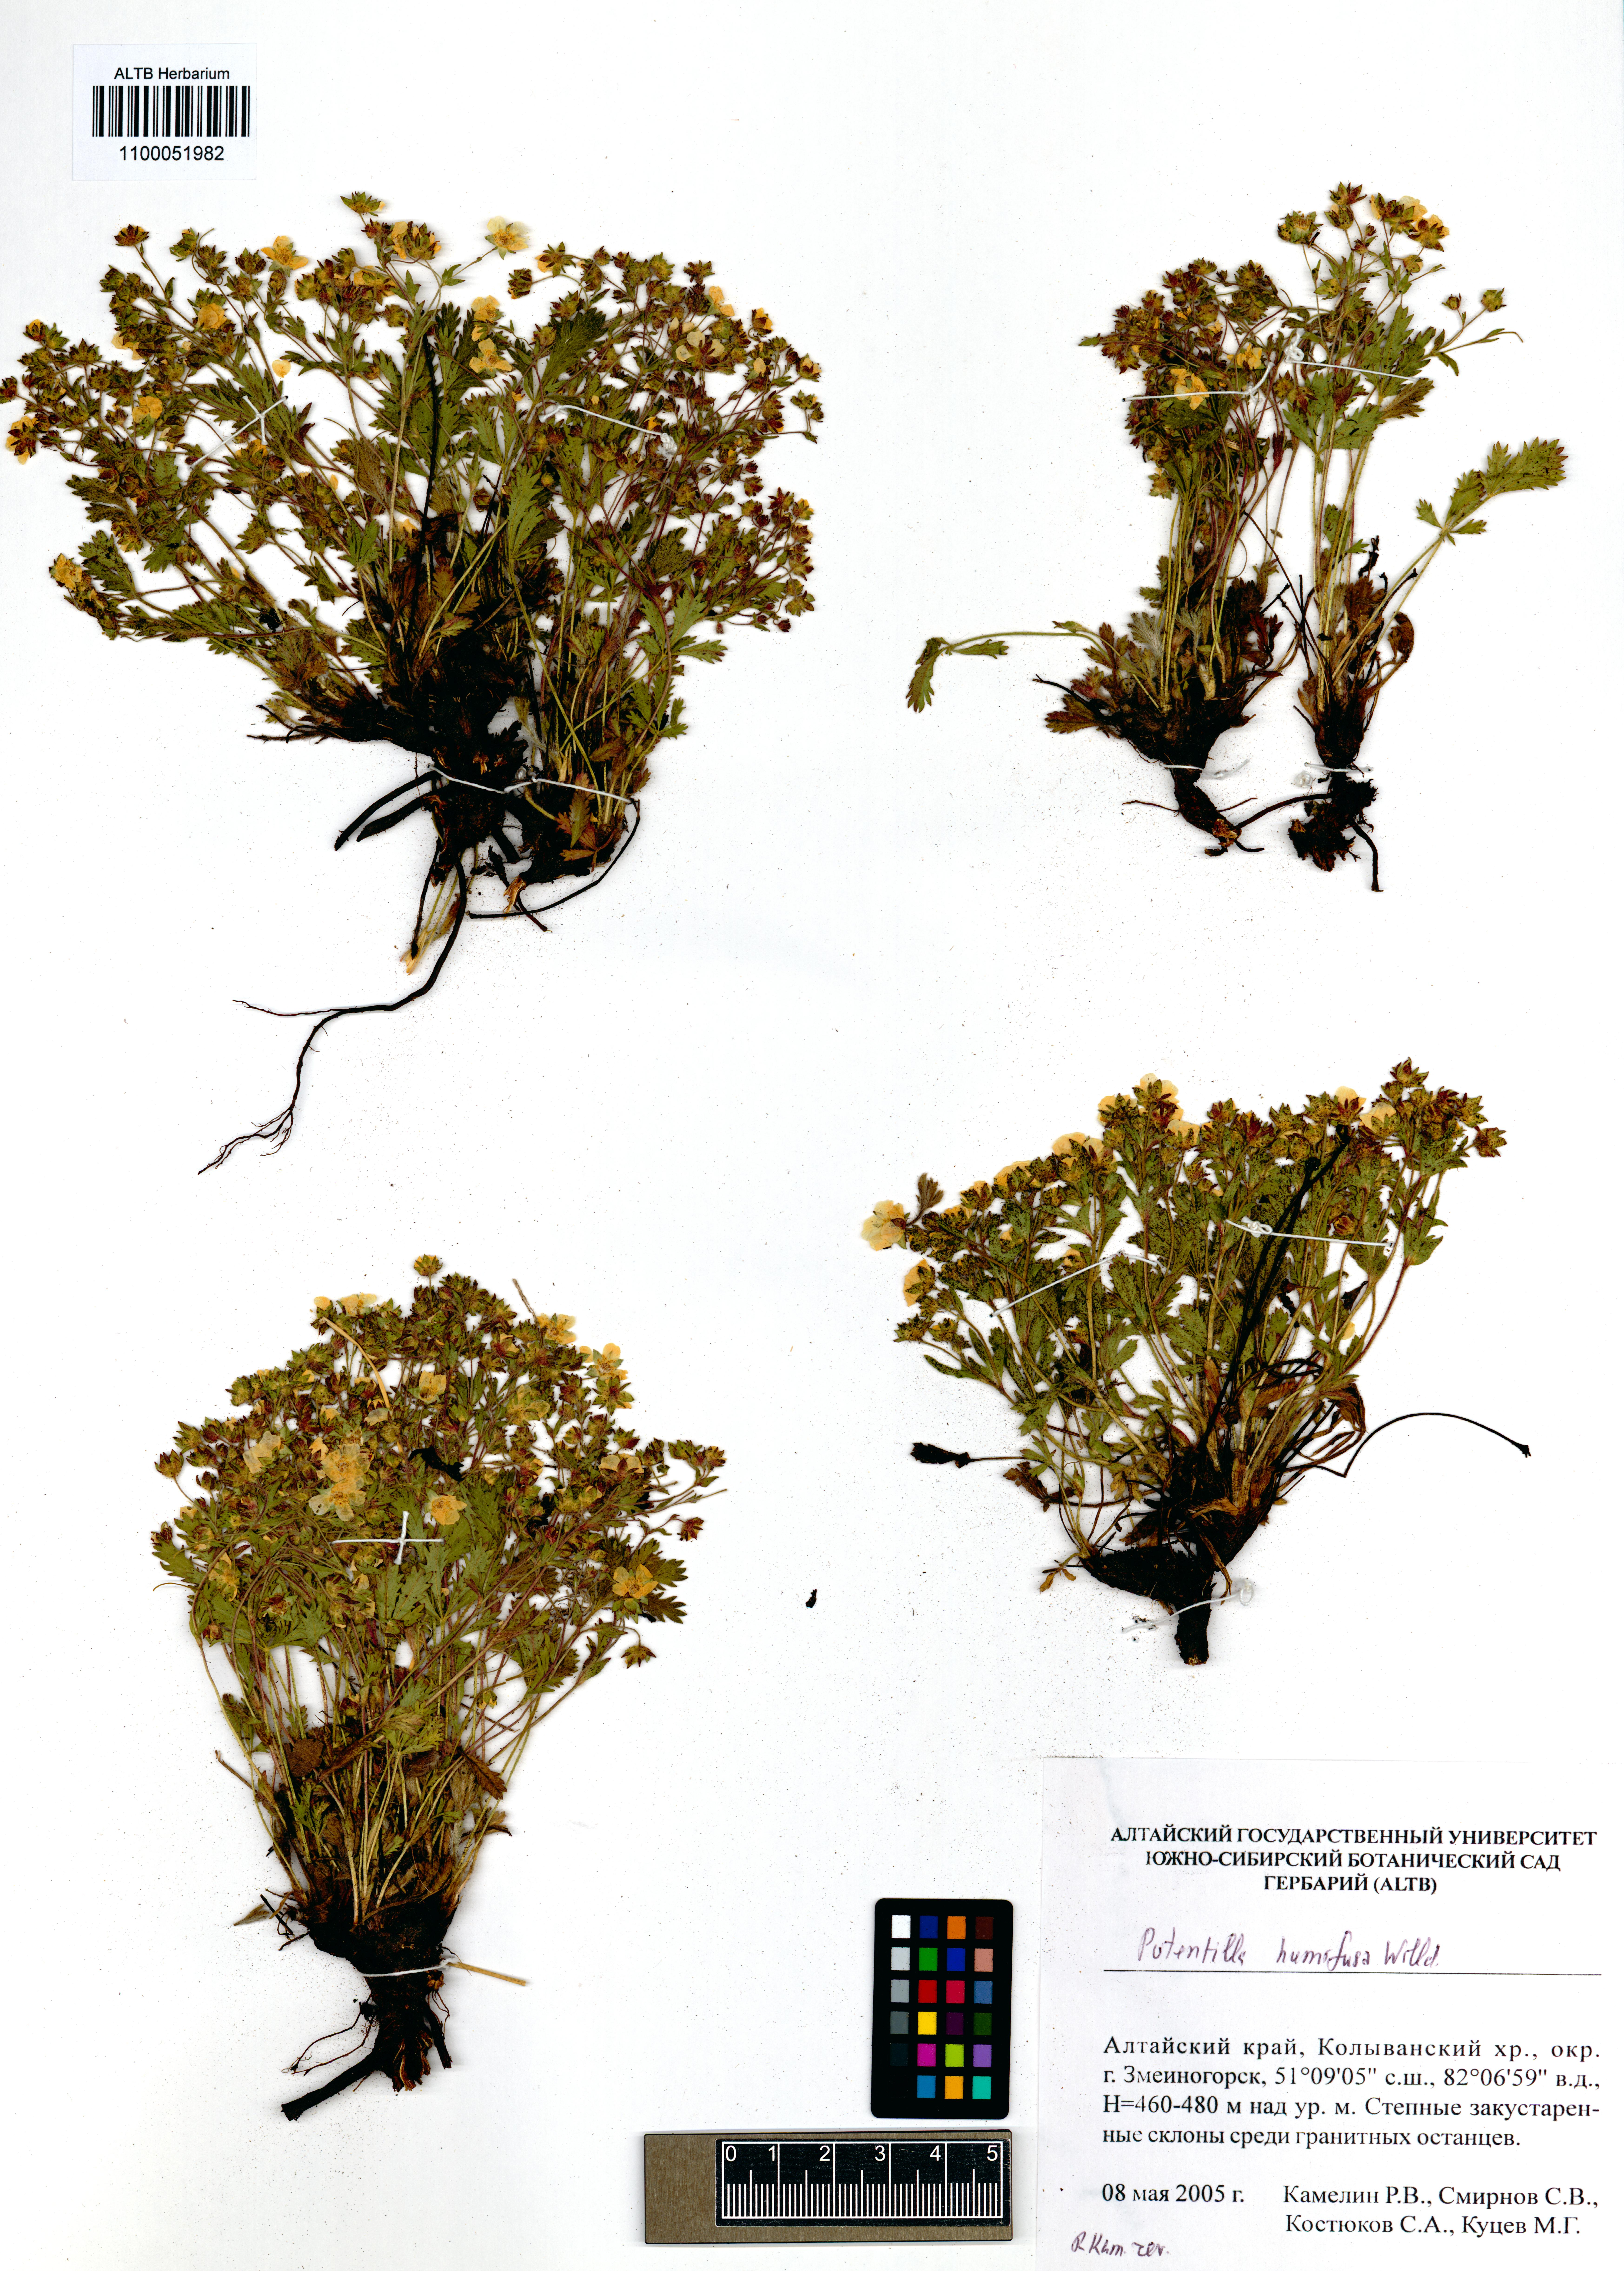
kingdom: Plantae
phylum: Tracheophyta
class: Magnoliopsida
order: Rosales
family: Rosaceae
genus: Potentilla
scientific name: Potentilla humifusa
